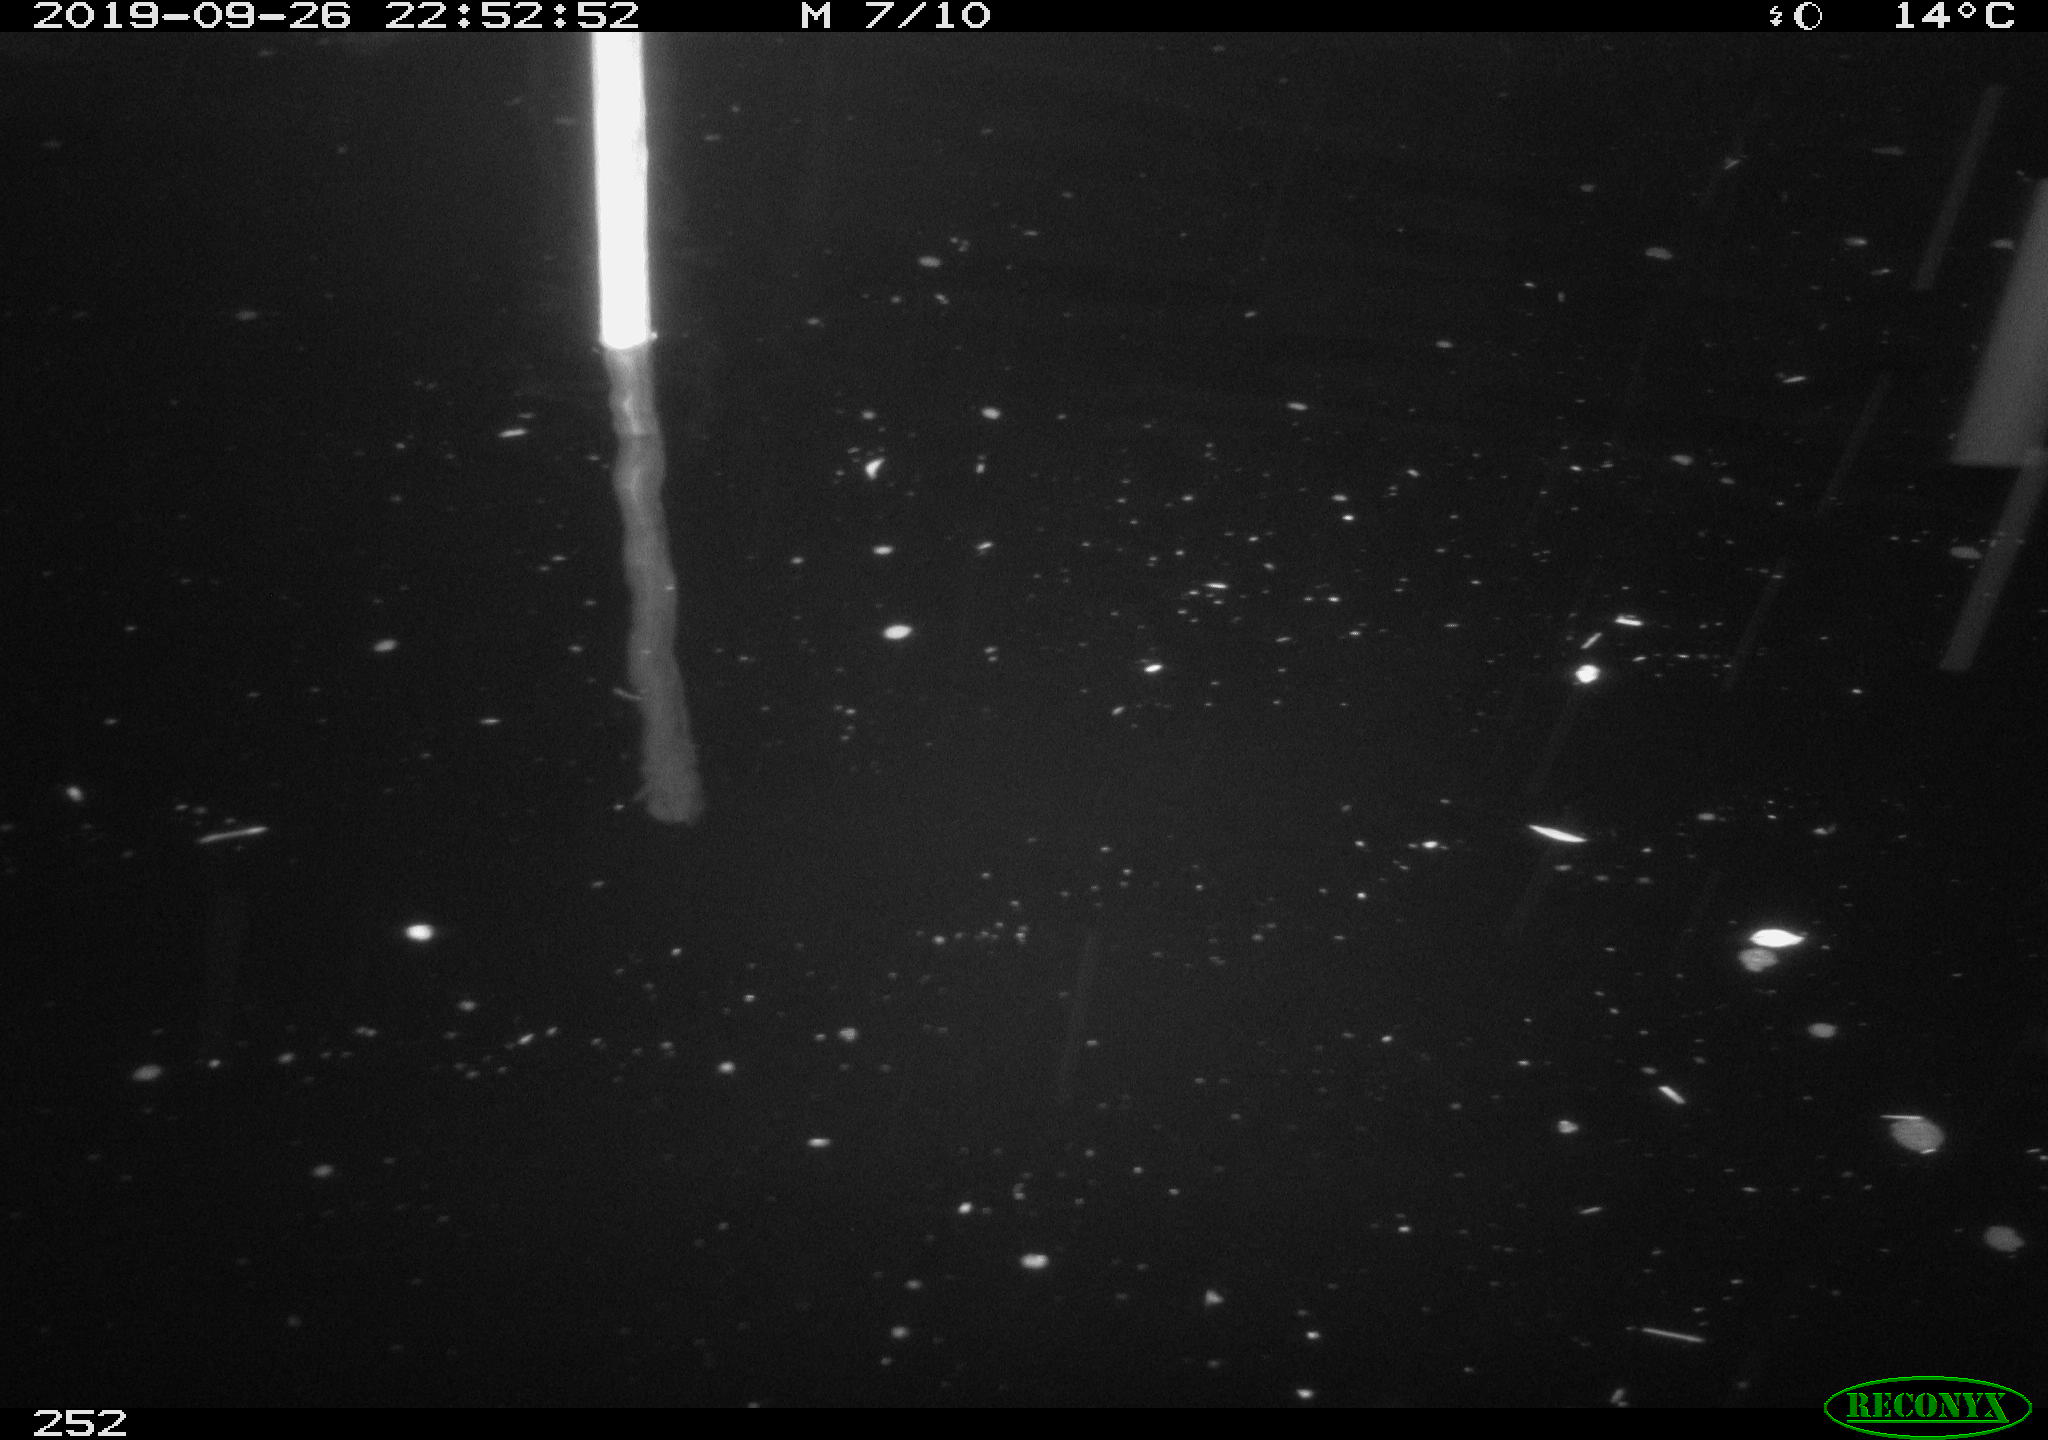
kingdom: Animalia
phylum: Chordata
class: Aves
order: Anseriformes
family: Anatidae
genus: Anas
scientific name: Anas platyrhynchos
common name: Mallard
